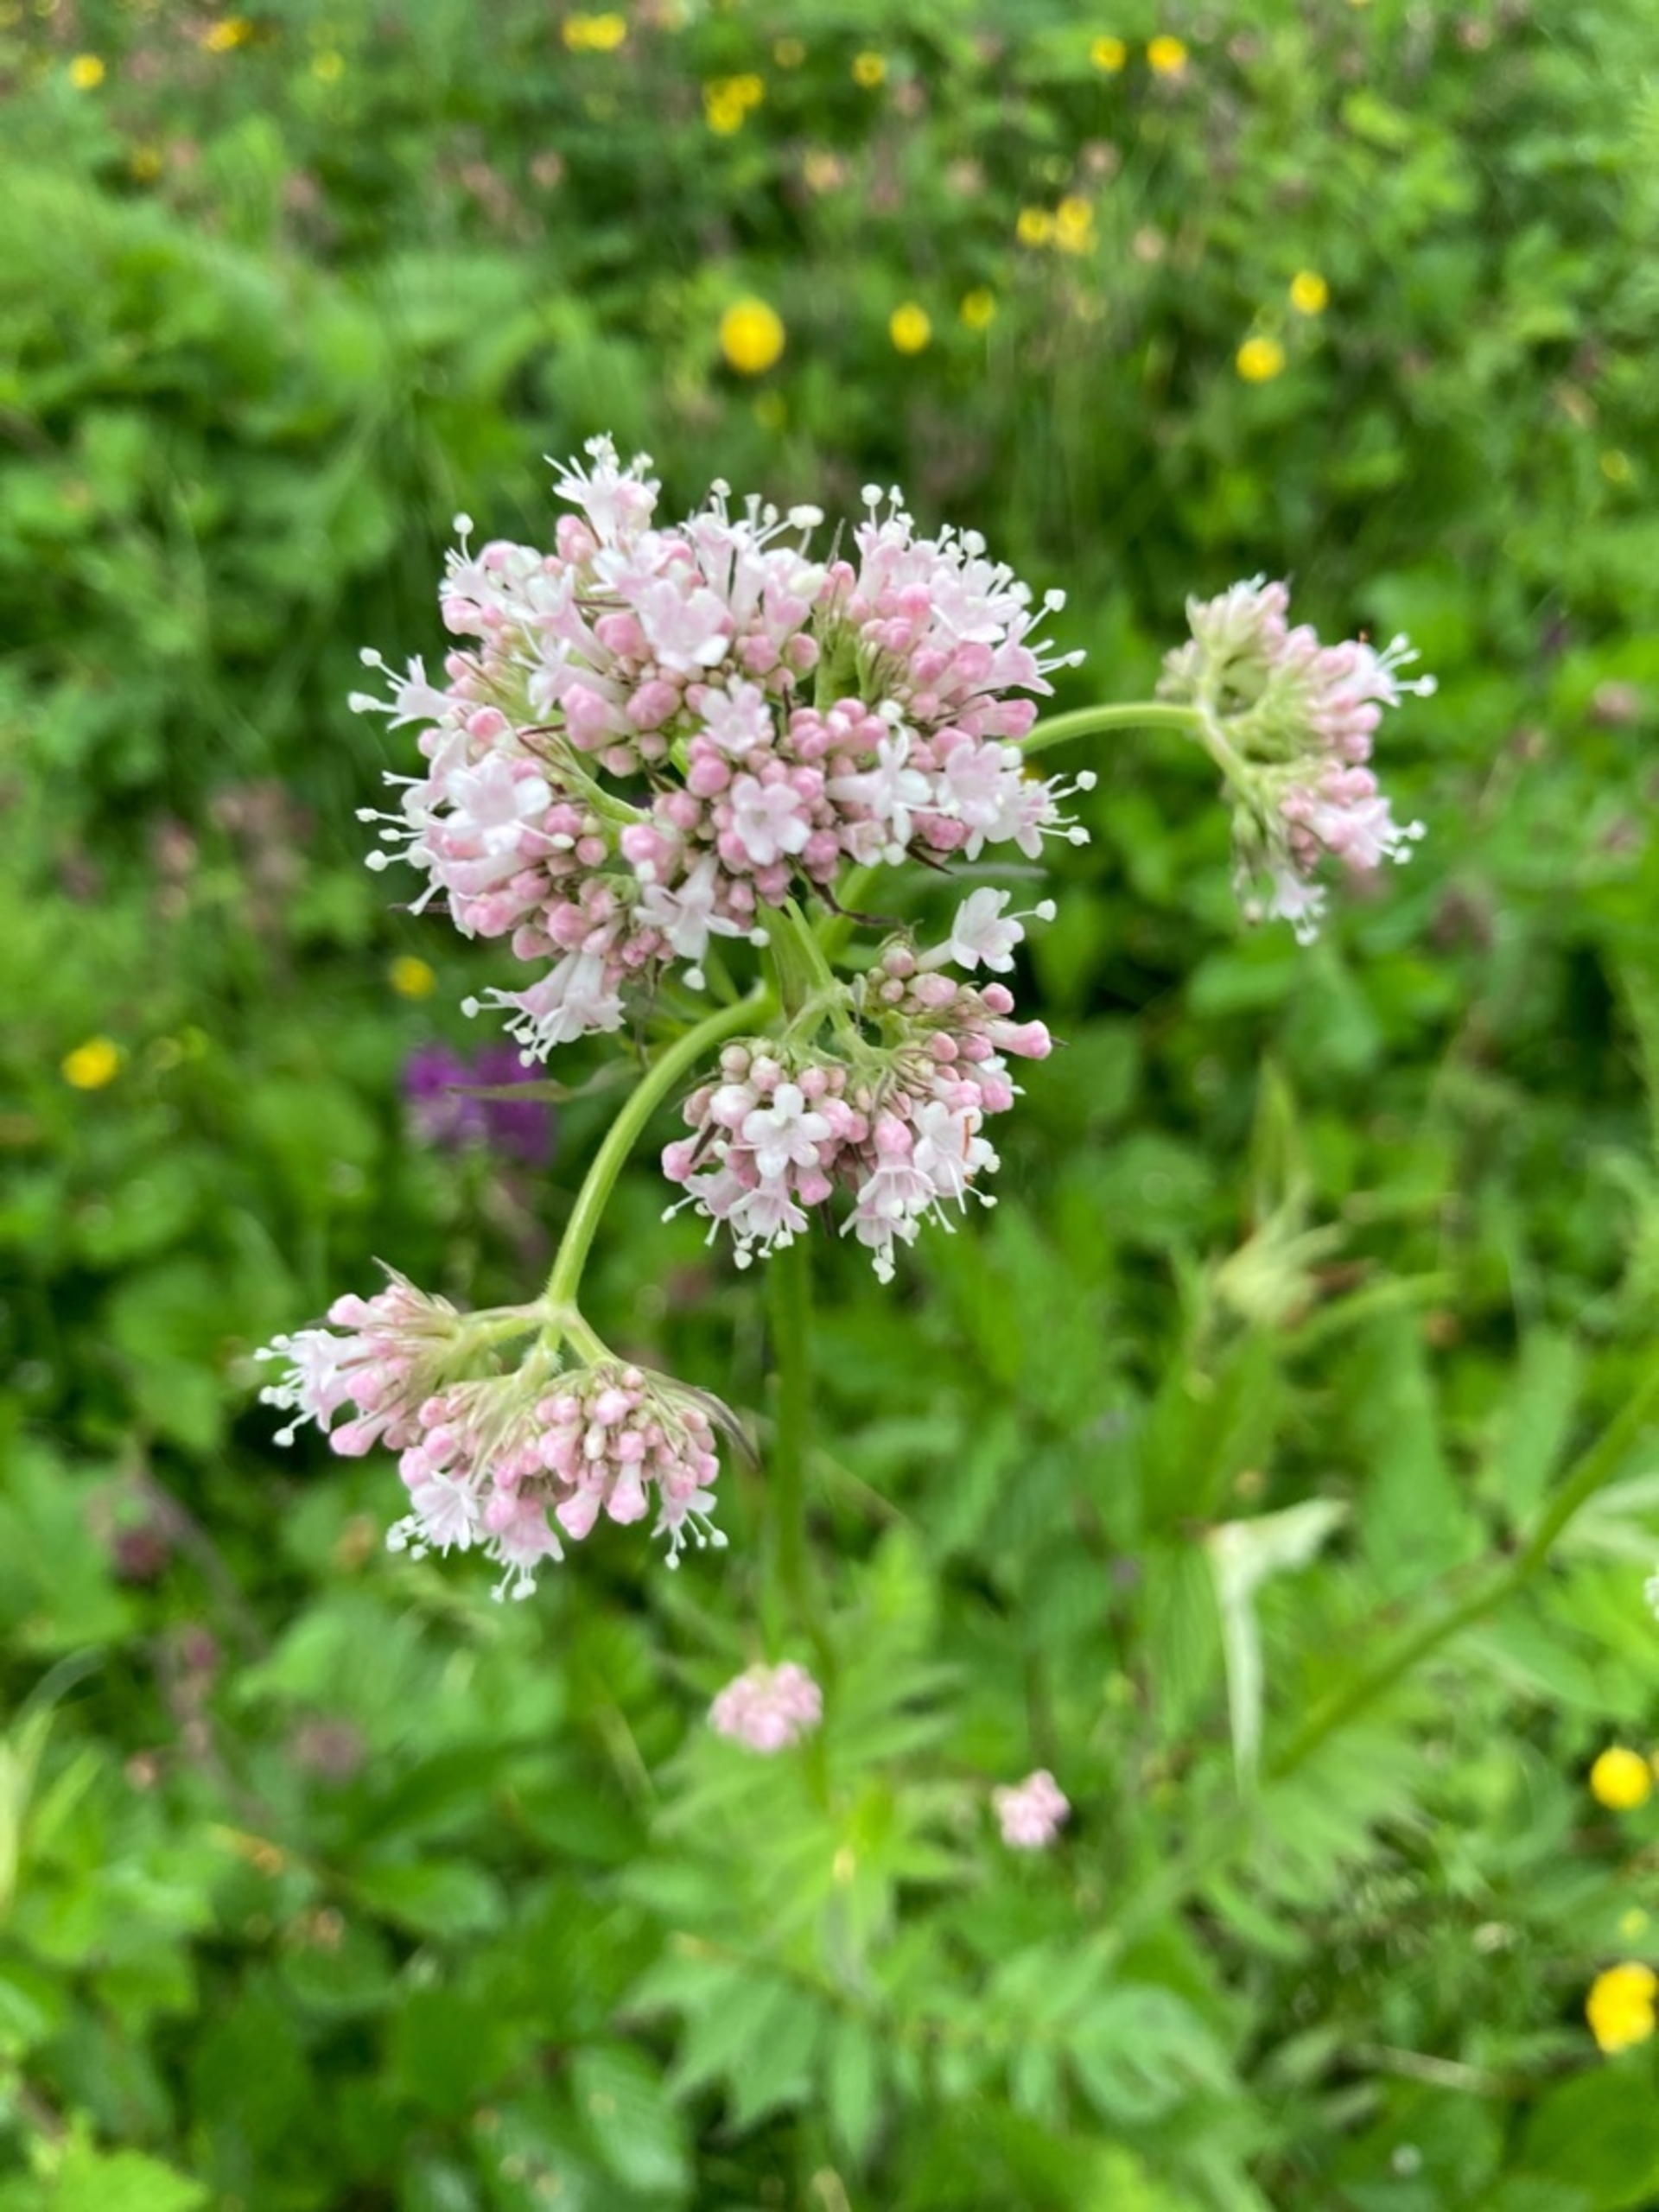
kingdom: Plantae
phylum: Tracheophyta
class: Magnoliopsida
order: Dipsacales
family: Caprifoliaceae
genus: Valeriana
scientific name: Valeriana excelsa
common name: Krybende baldrian
